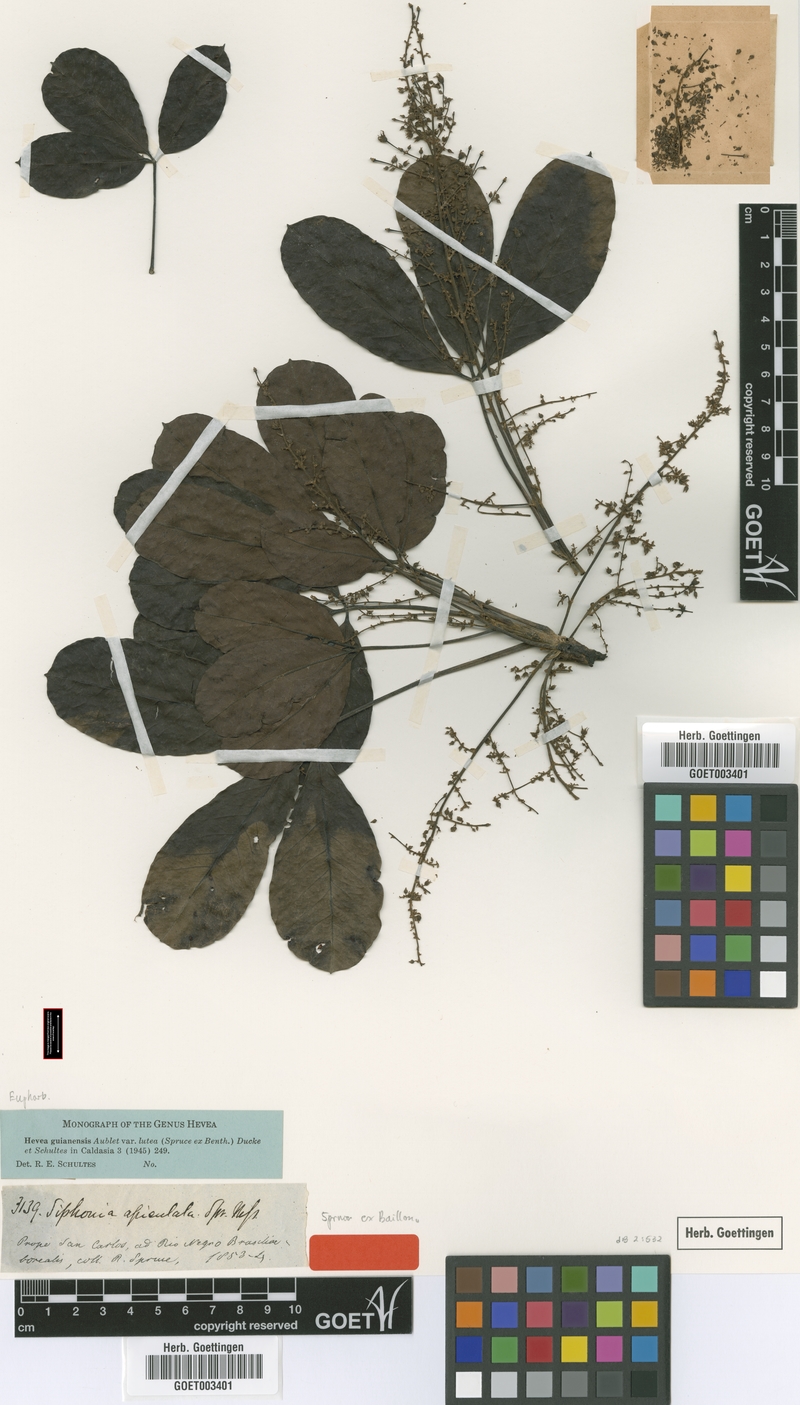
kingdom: Plantae
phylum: Tracheophyta
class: Magnoliopsida
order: Malpighiales
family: Euphorbiaceae
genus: Hevea
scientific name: Hevea guianensis
